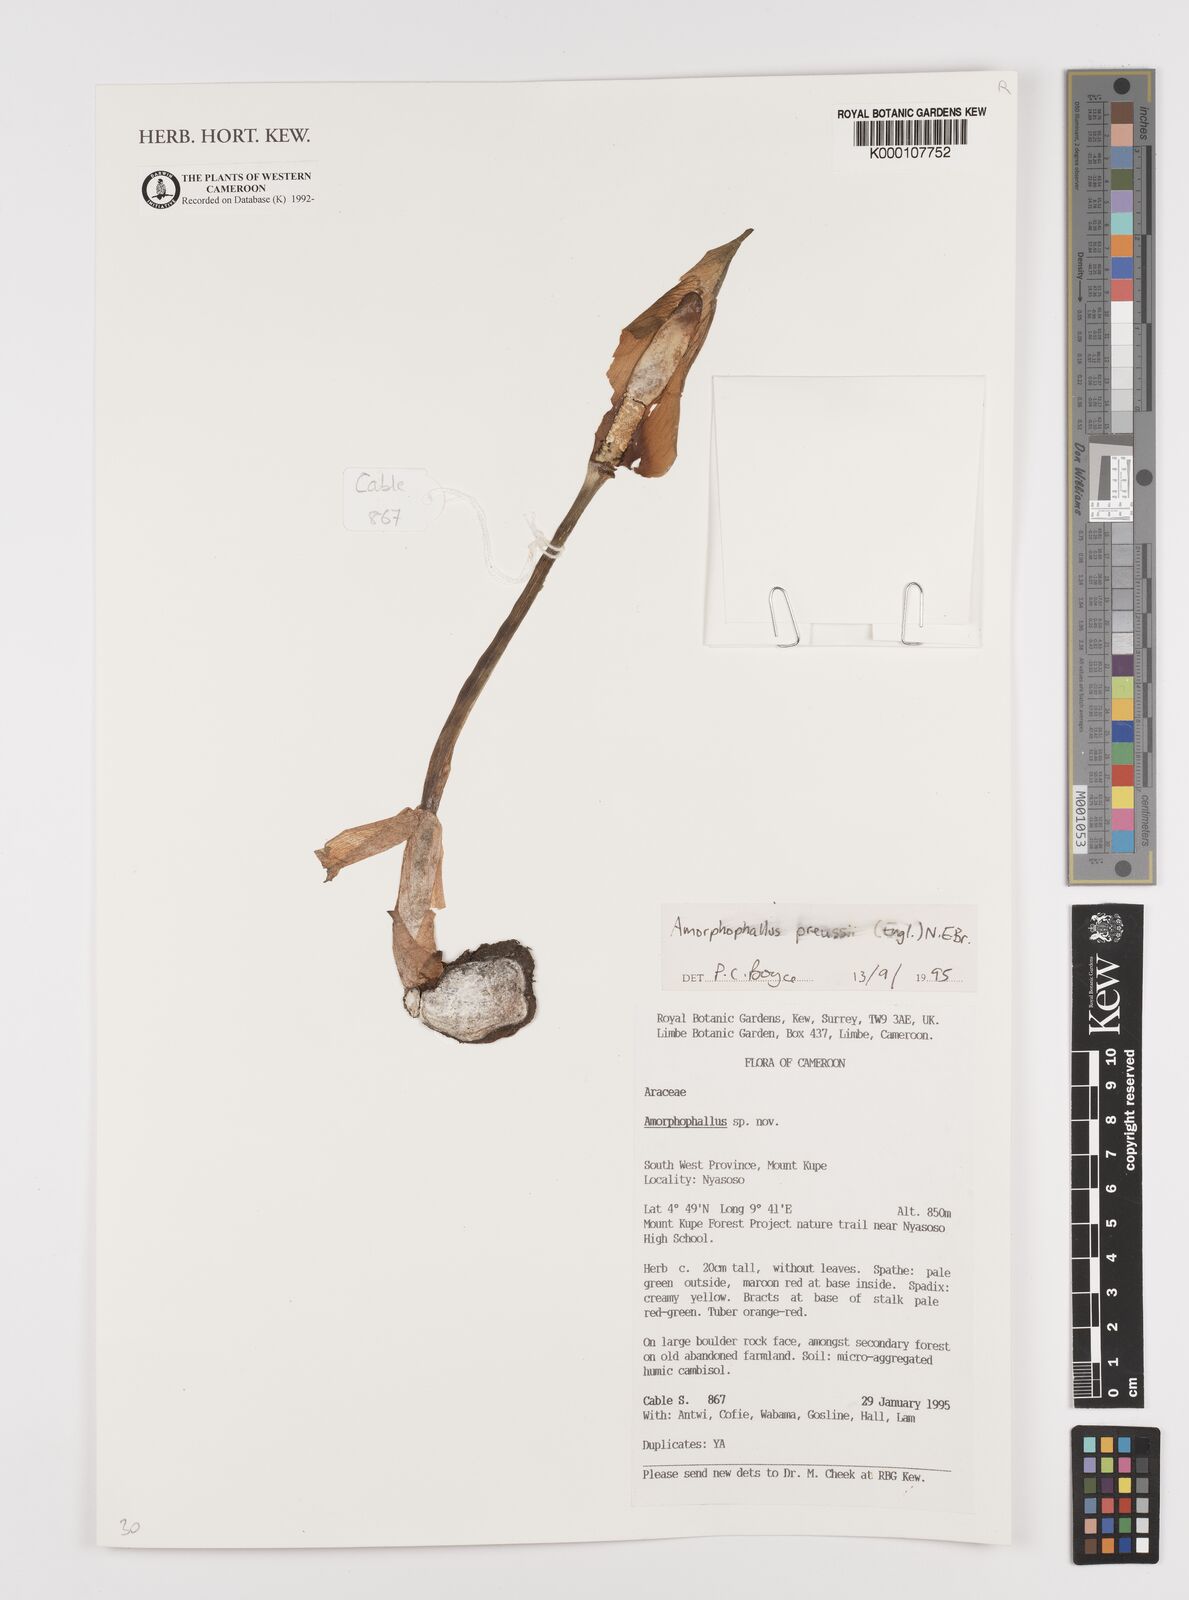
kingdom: Plantae
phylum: Tracheophyta
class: Liliopsida
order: Alismatales
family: Araceae
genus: Amorphophallus
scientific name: Amorphophallus preussii
